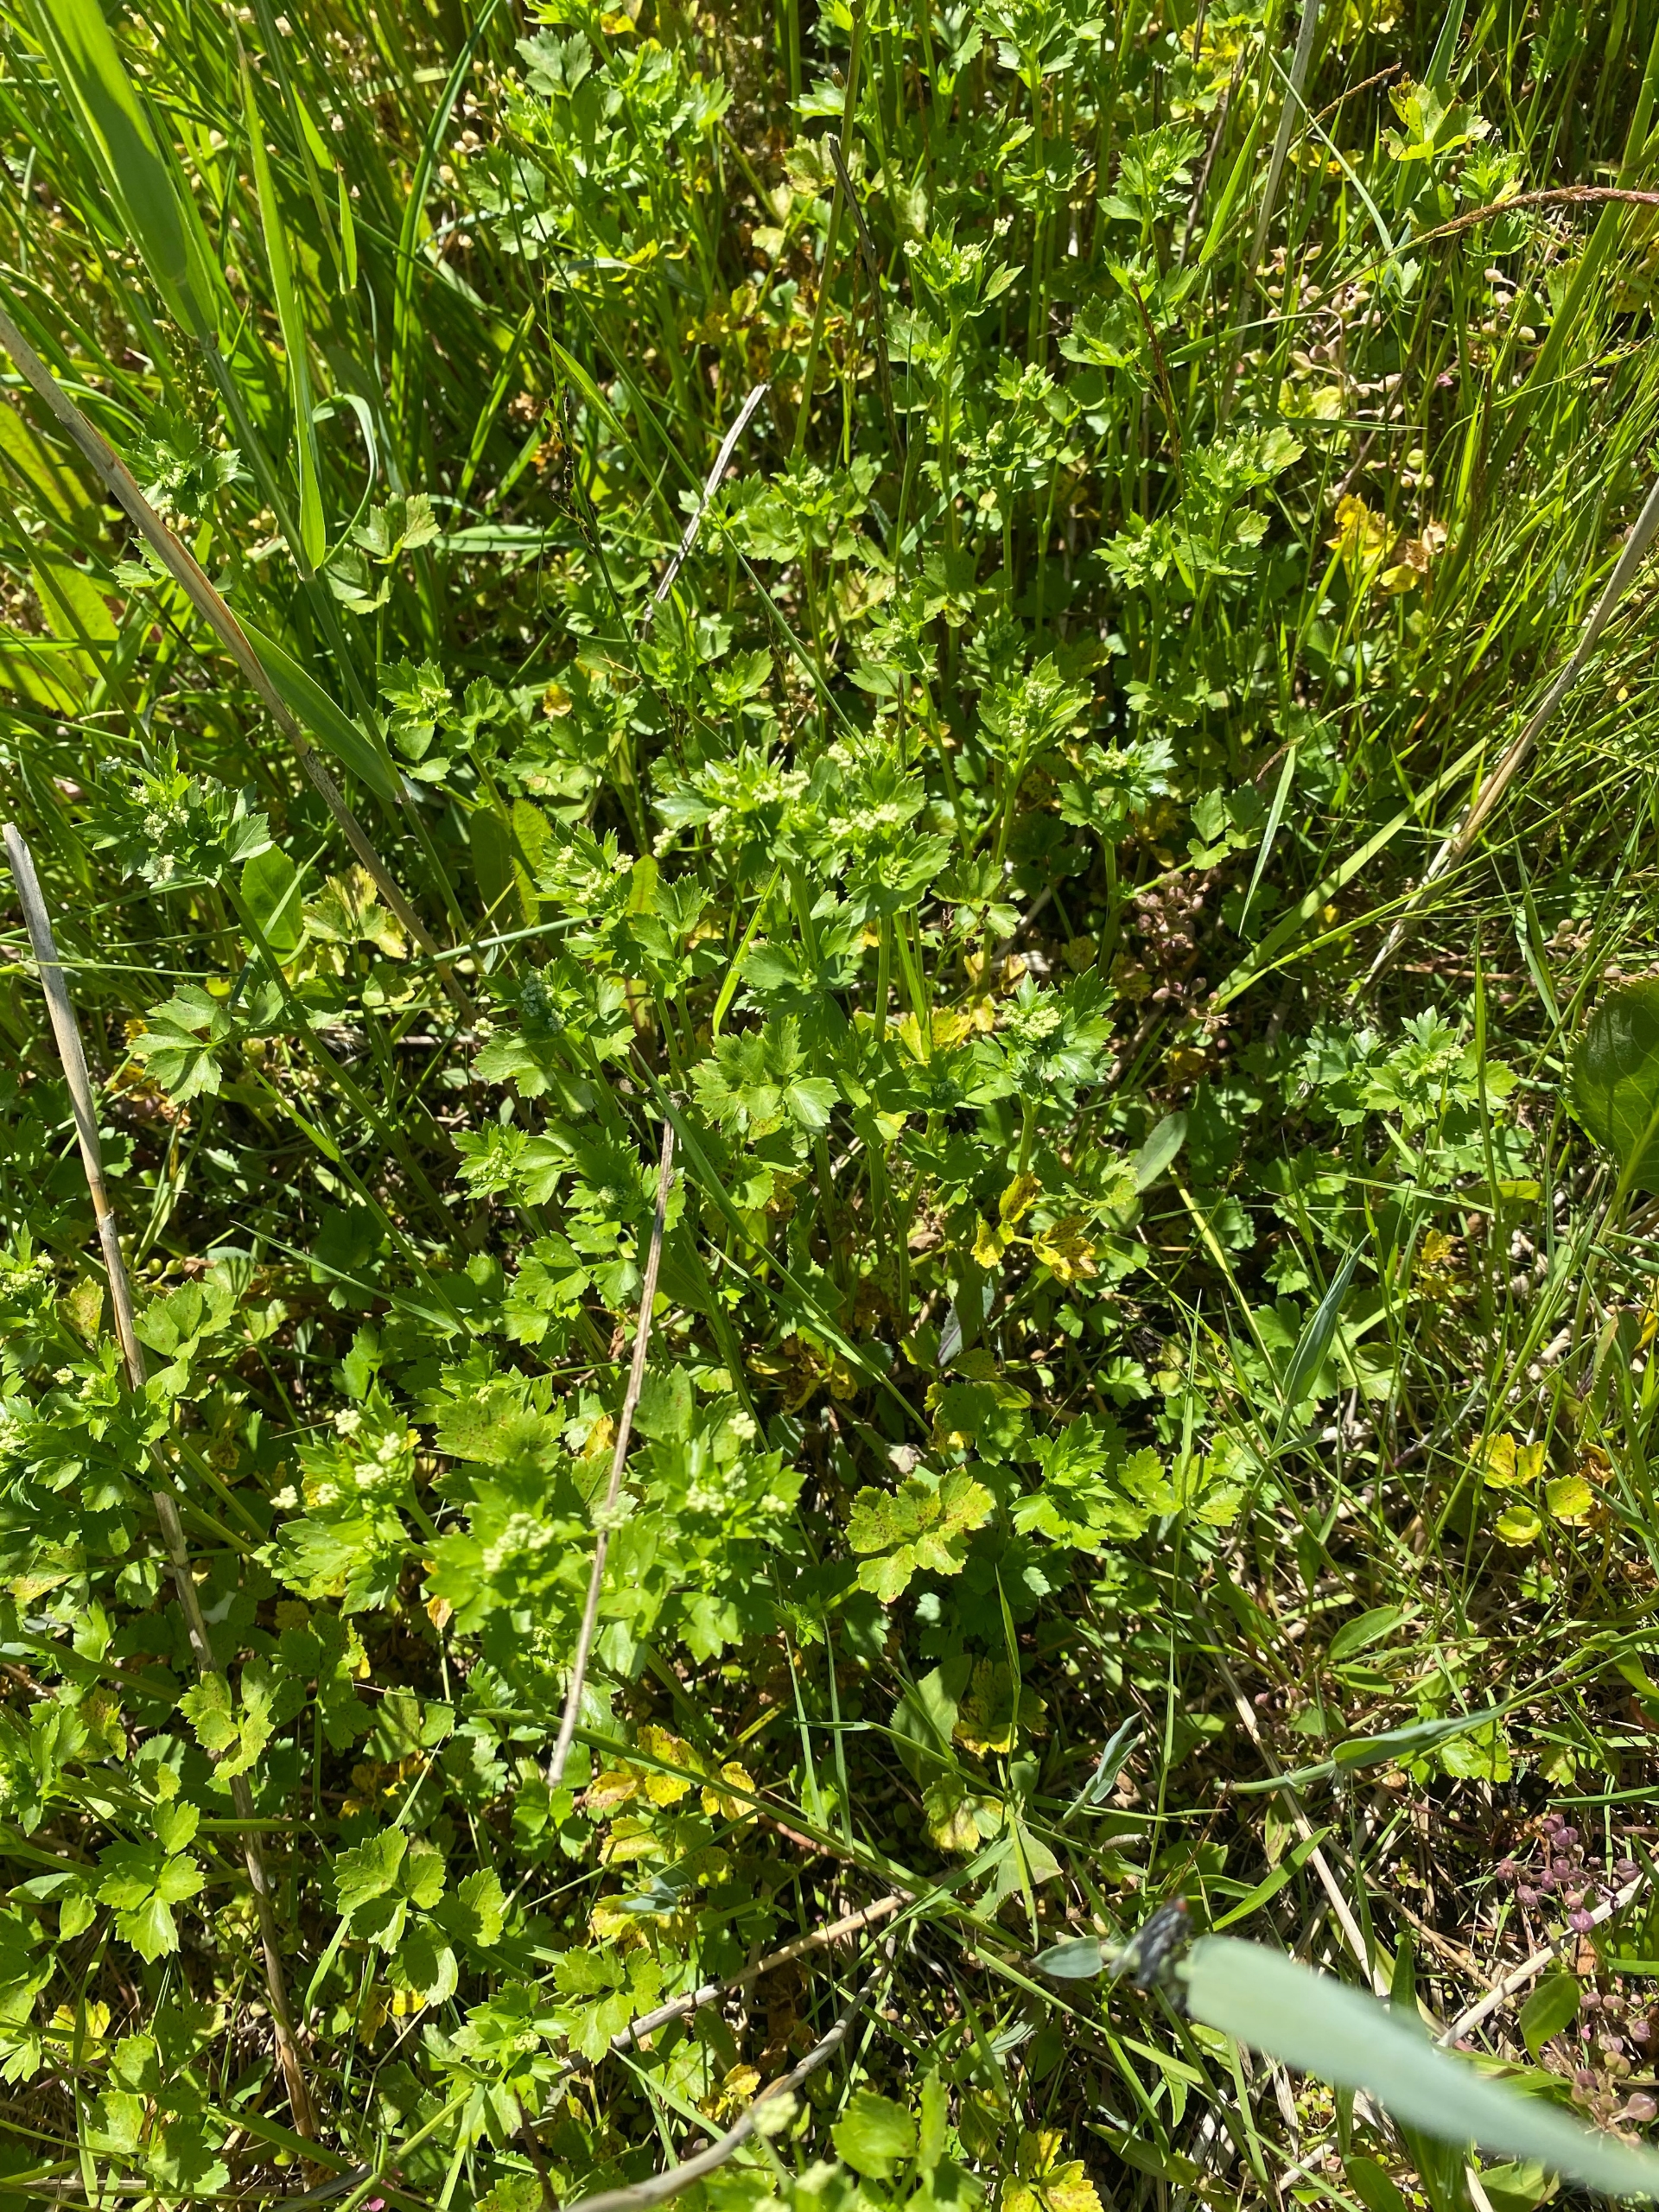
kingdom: Plantae
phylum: Tracheophyta
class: Magnoliopsida
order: Apiales
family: Apiaceae
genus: Apium
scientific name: Apium graveolens
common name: Vild selleri
